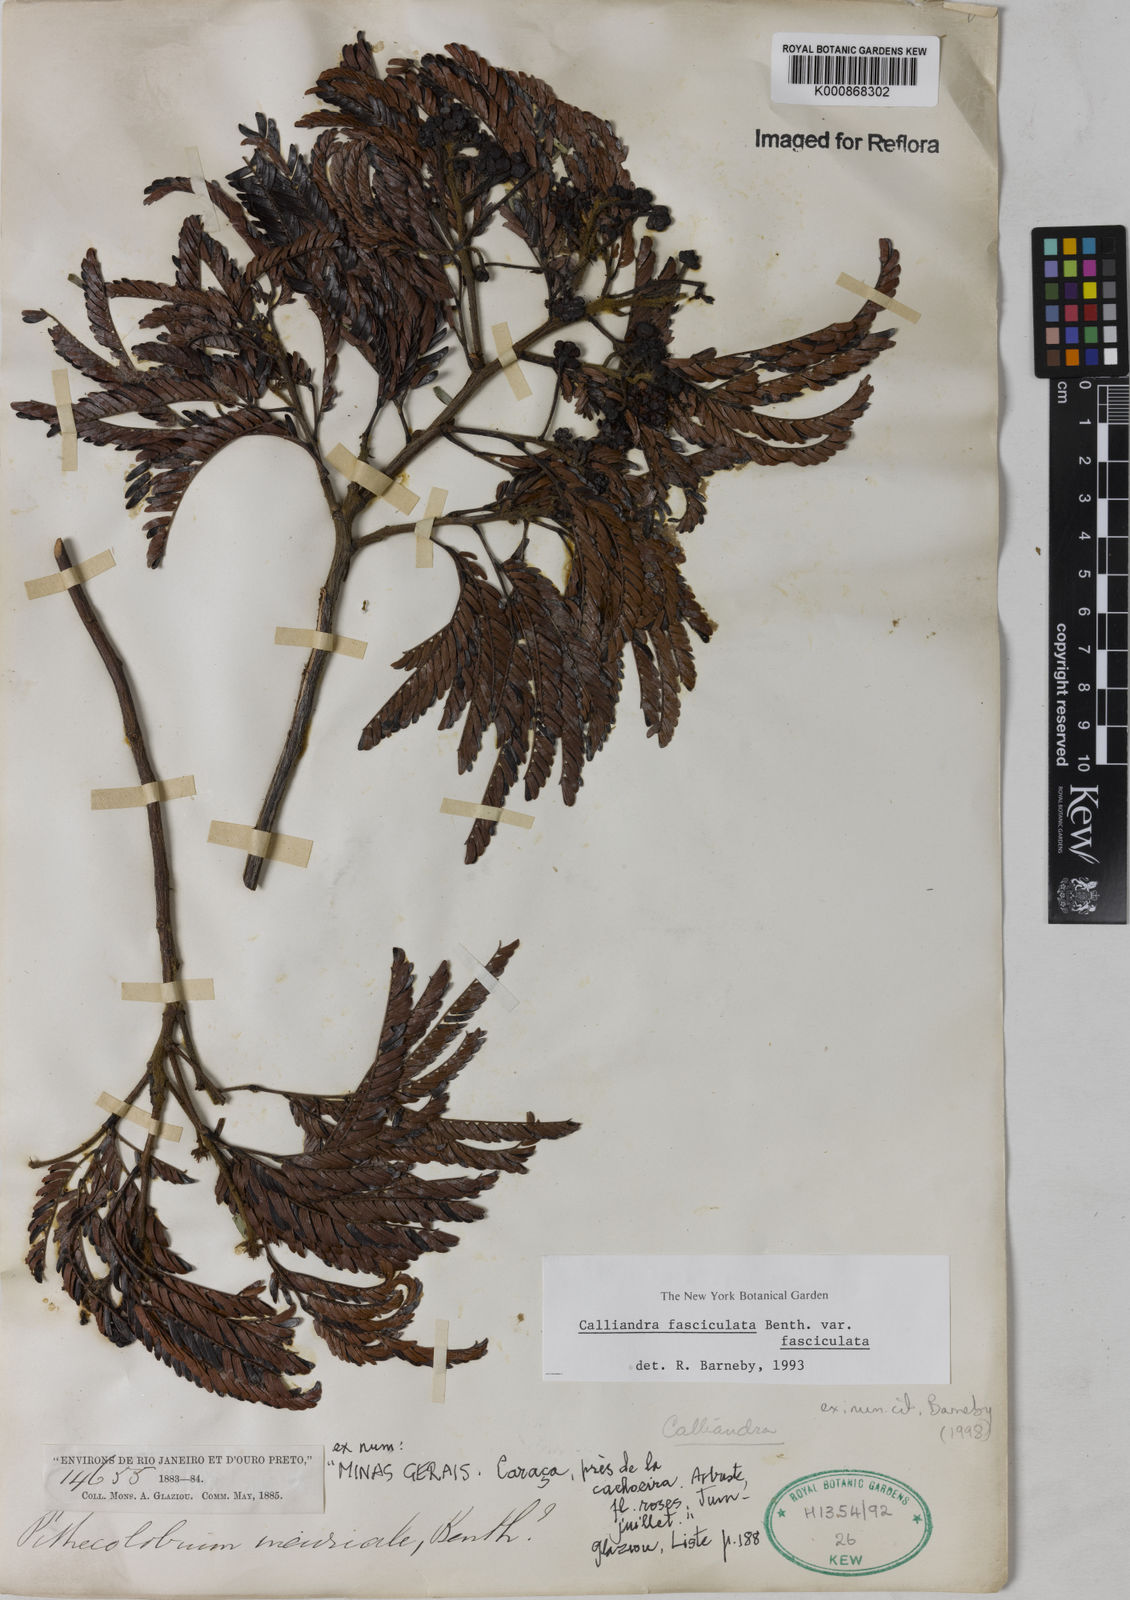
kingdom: Plantae
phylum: Tracheophyta
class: Magnoliopsida
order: Fabales
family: Fabaceae
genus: Calliandra
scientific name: Calliandra fasciculata
